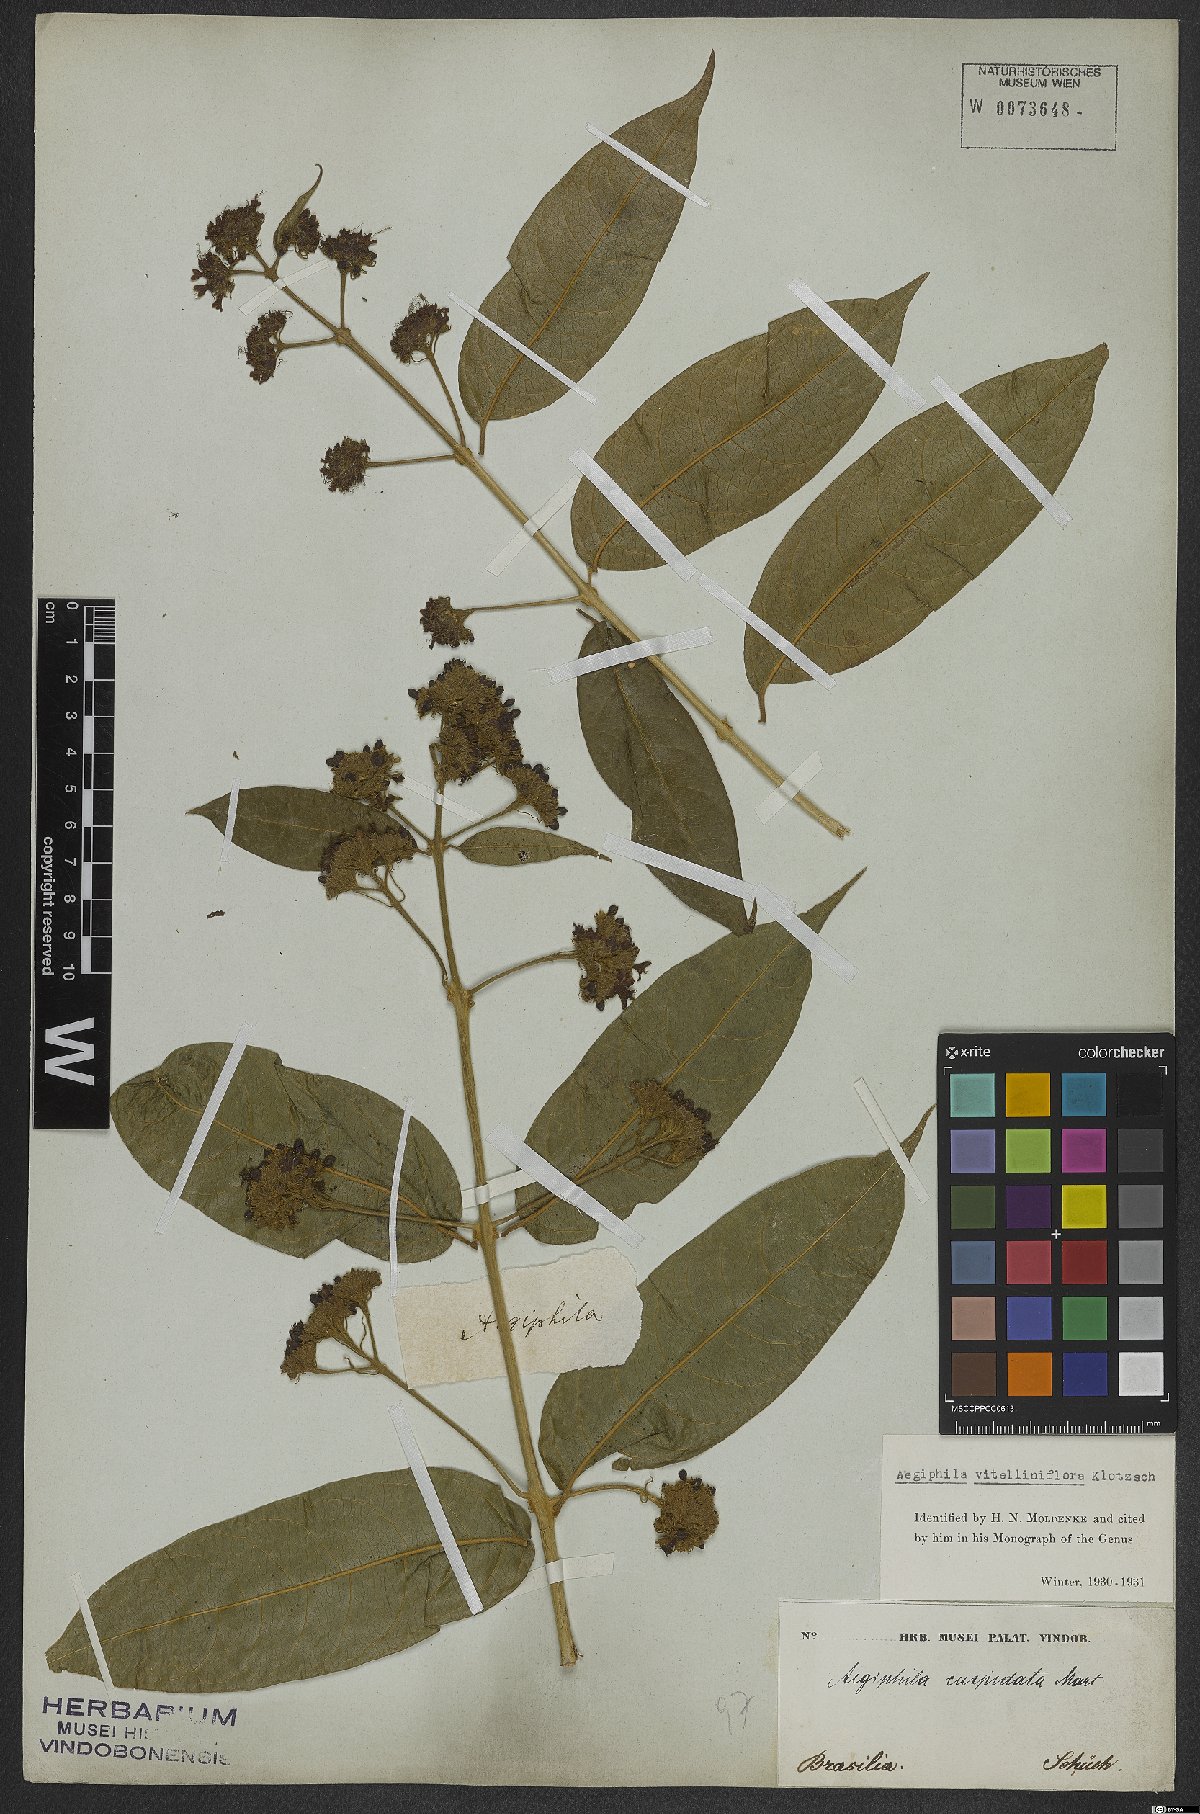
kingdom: Plantae
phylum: Tracheophyta
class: Magnoliopsida
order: Lamiales
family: Lamiaceae
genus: Aegiphila
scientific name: Aegiphila vitelliniflora
